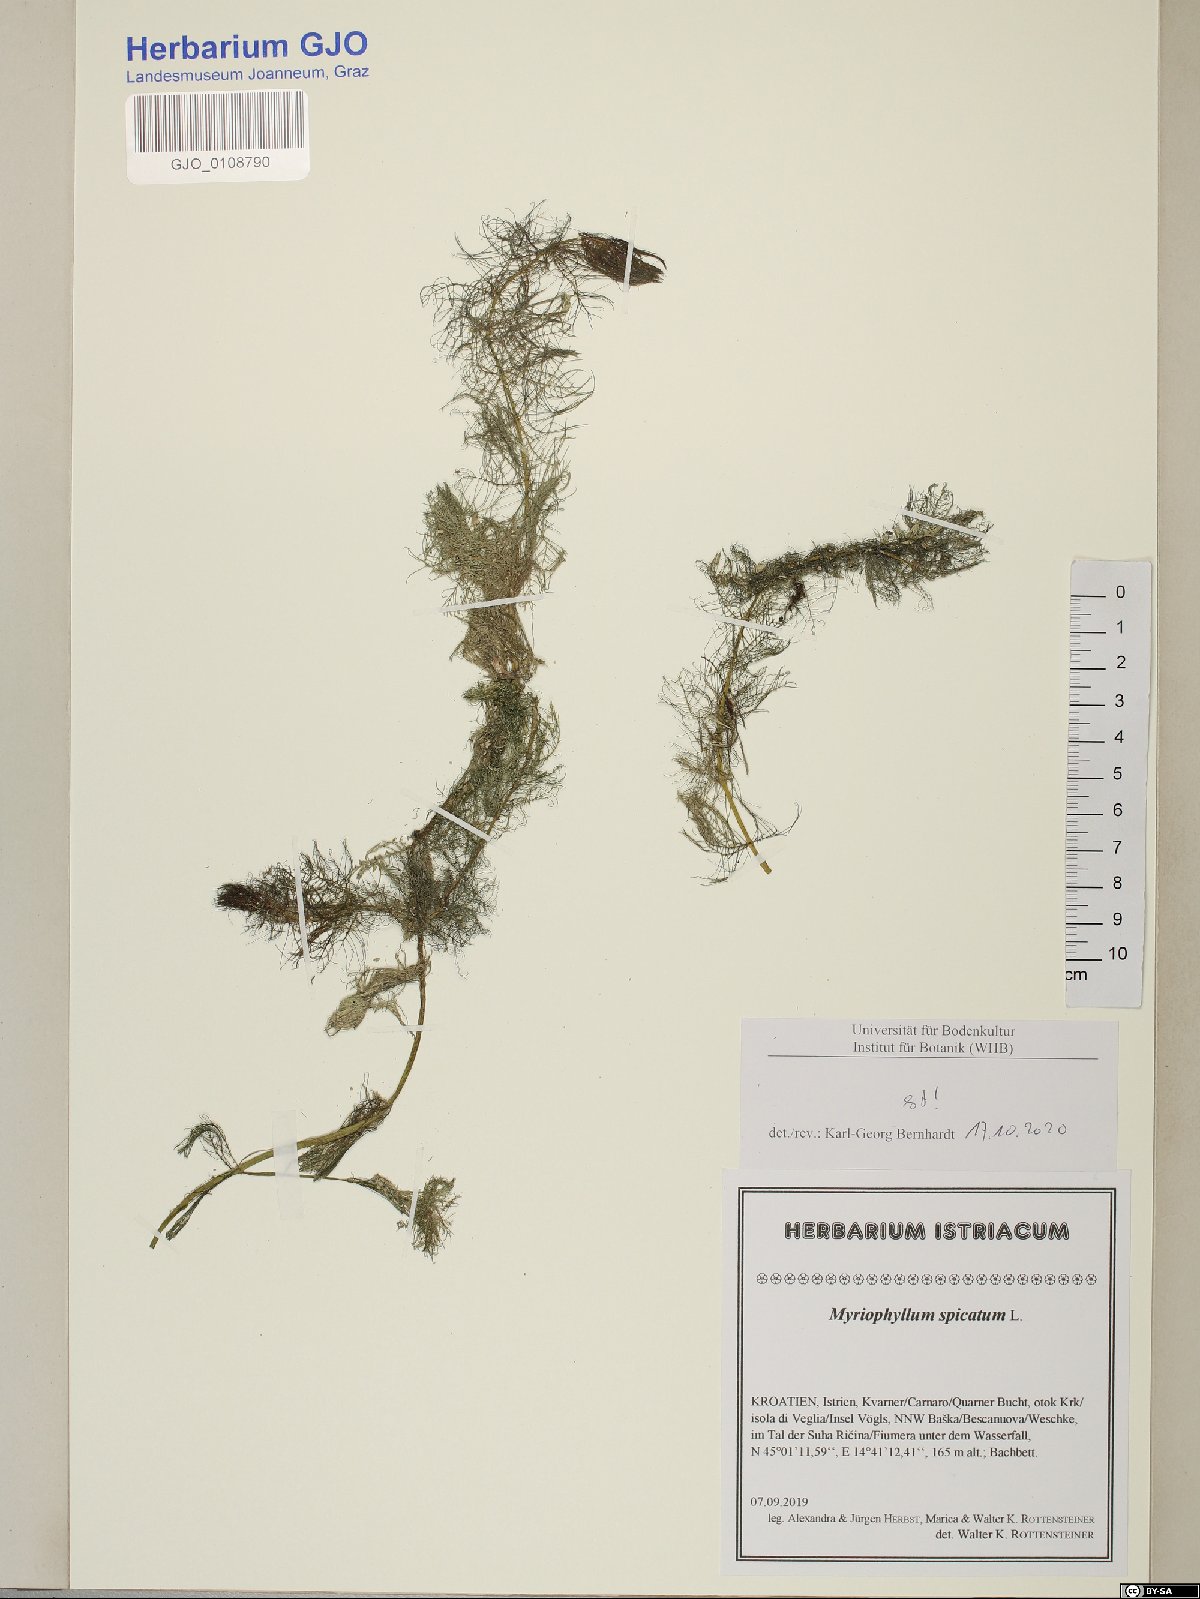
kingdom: Plantae
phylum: Tracheophyta
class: Magnoliopsida
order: Saxifragales
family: Haloragaceae
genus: Myriophyllum
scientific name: Myriophyllum spicatum
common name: Spiked water-milfoil
